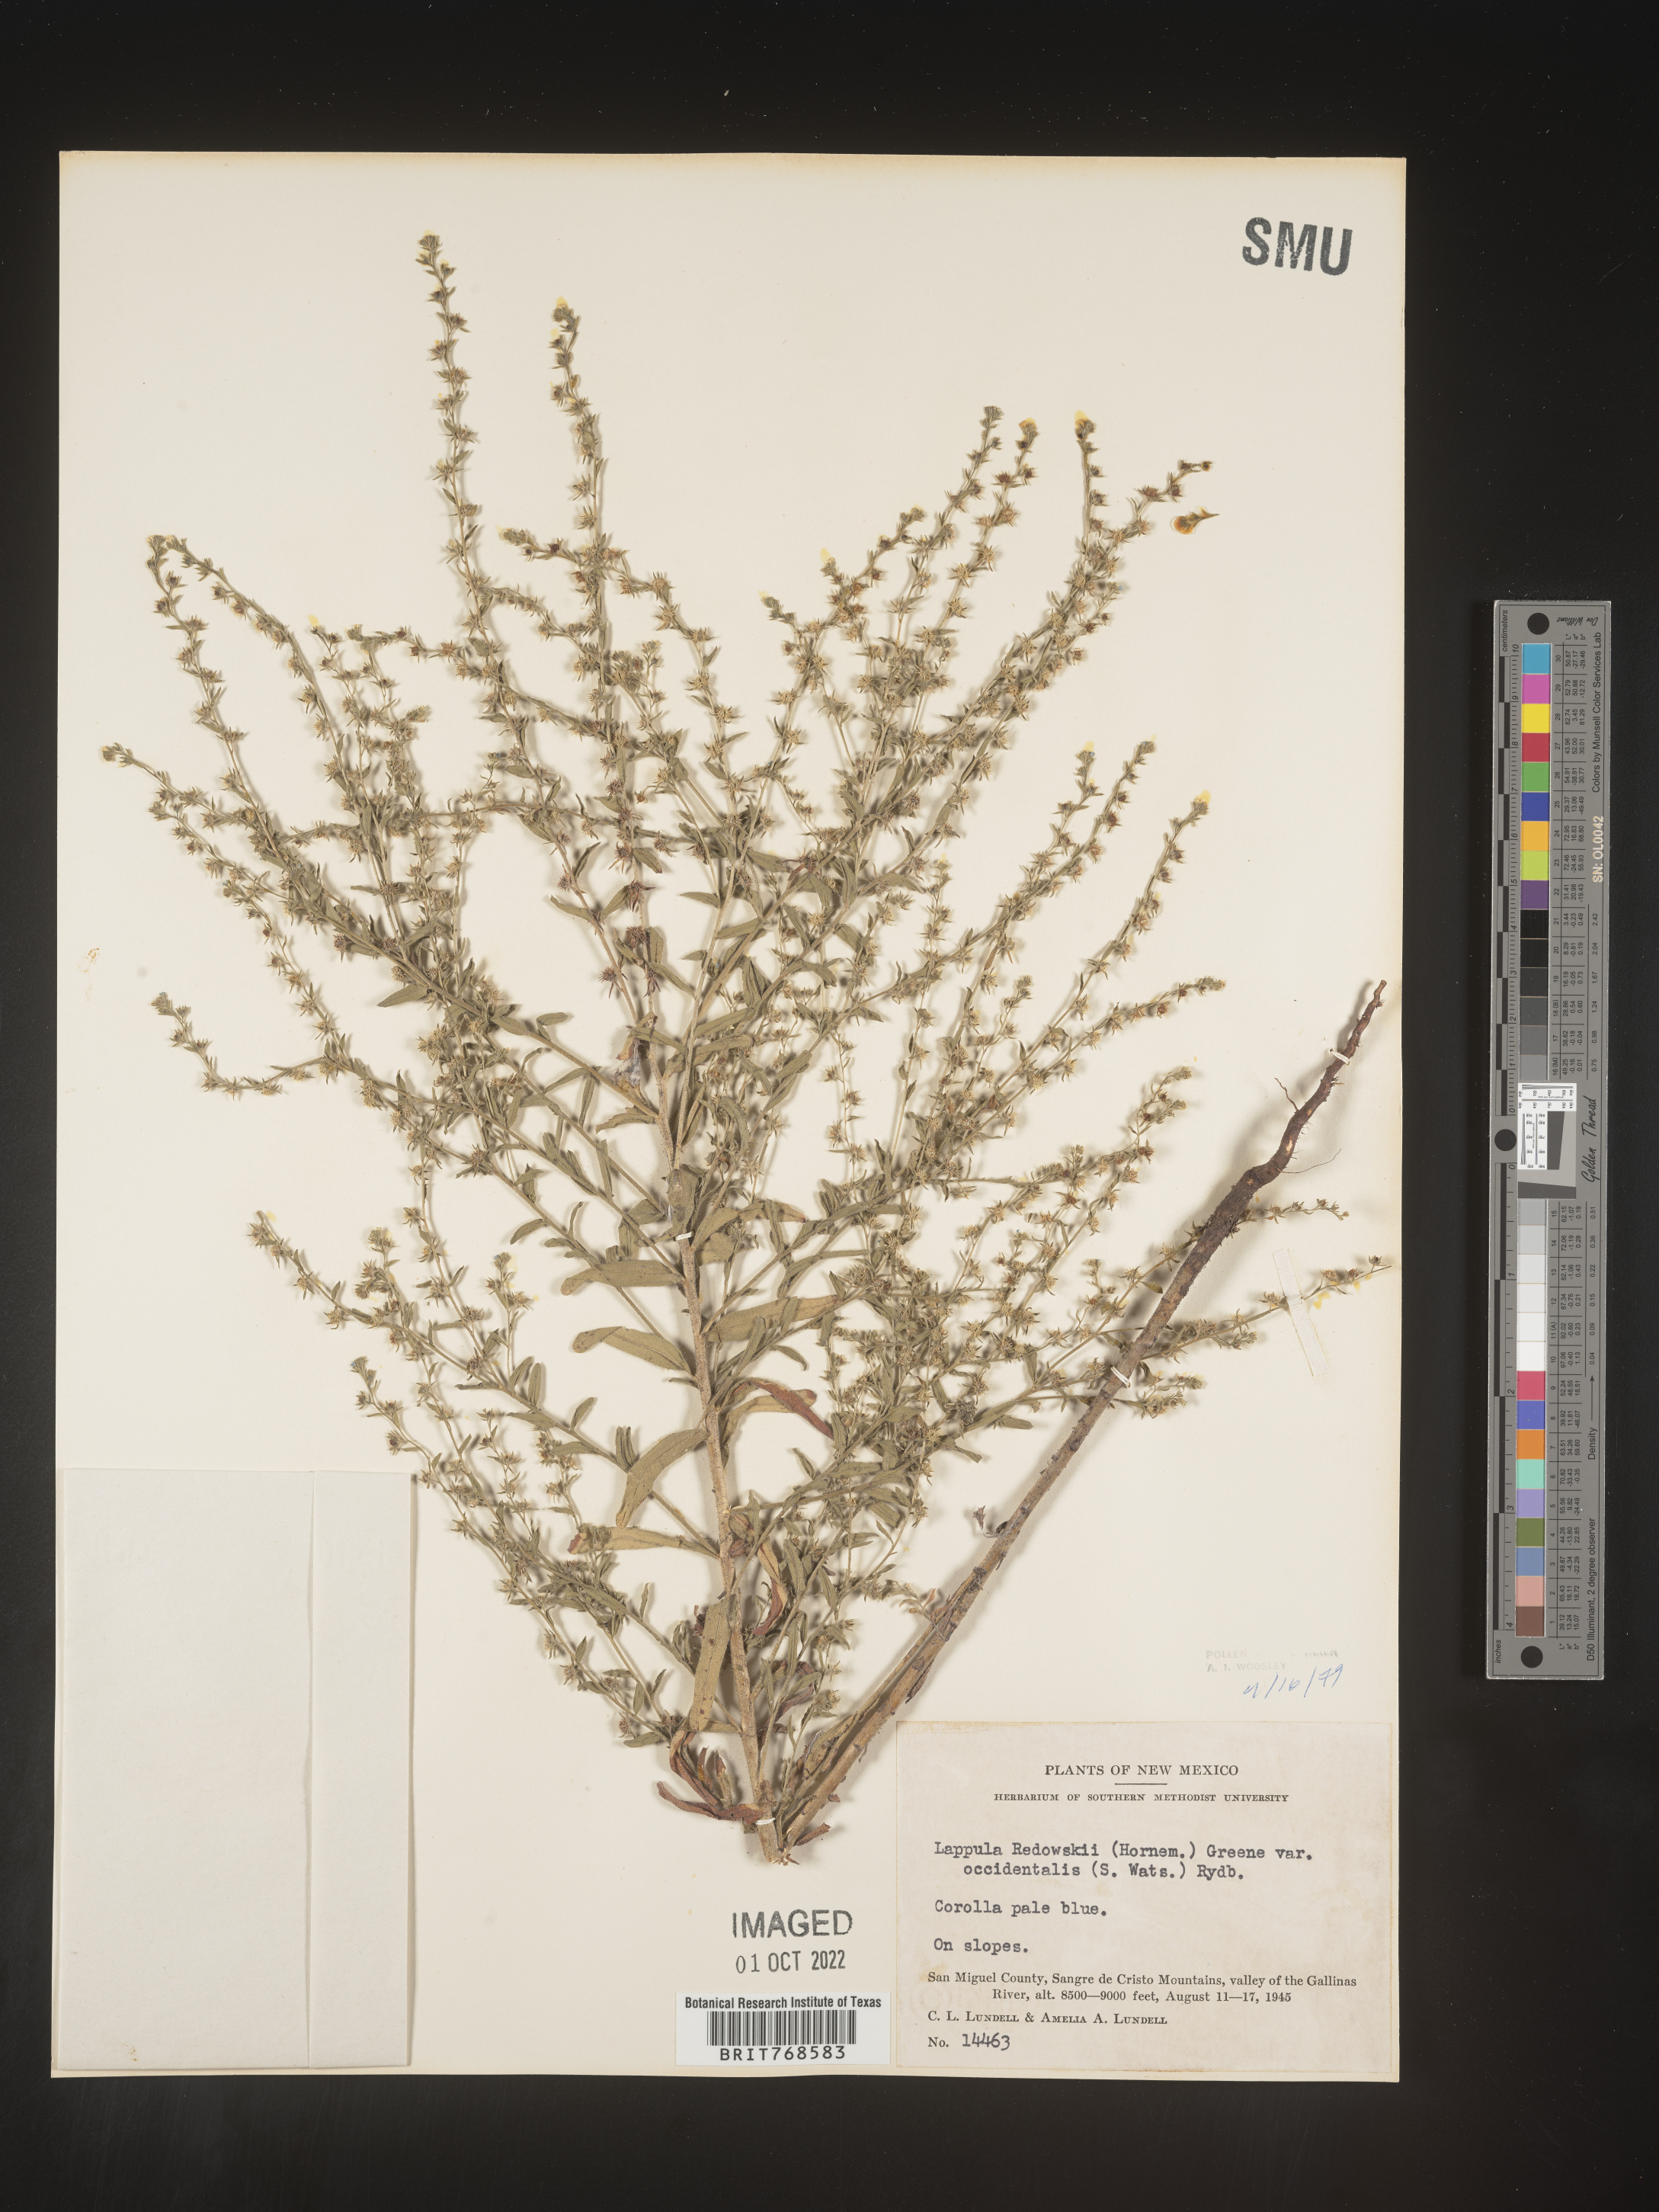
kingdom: Plantae
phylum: Tracheophyta
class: Magnoliopsida
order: Boraginales
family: Boraginaceae
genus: Lappula
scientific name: Lappula redowskii
